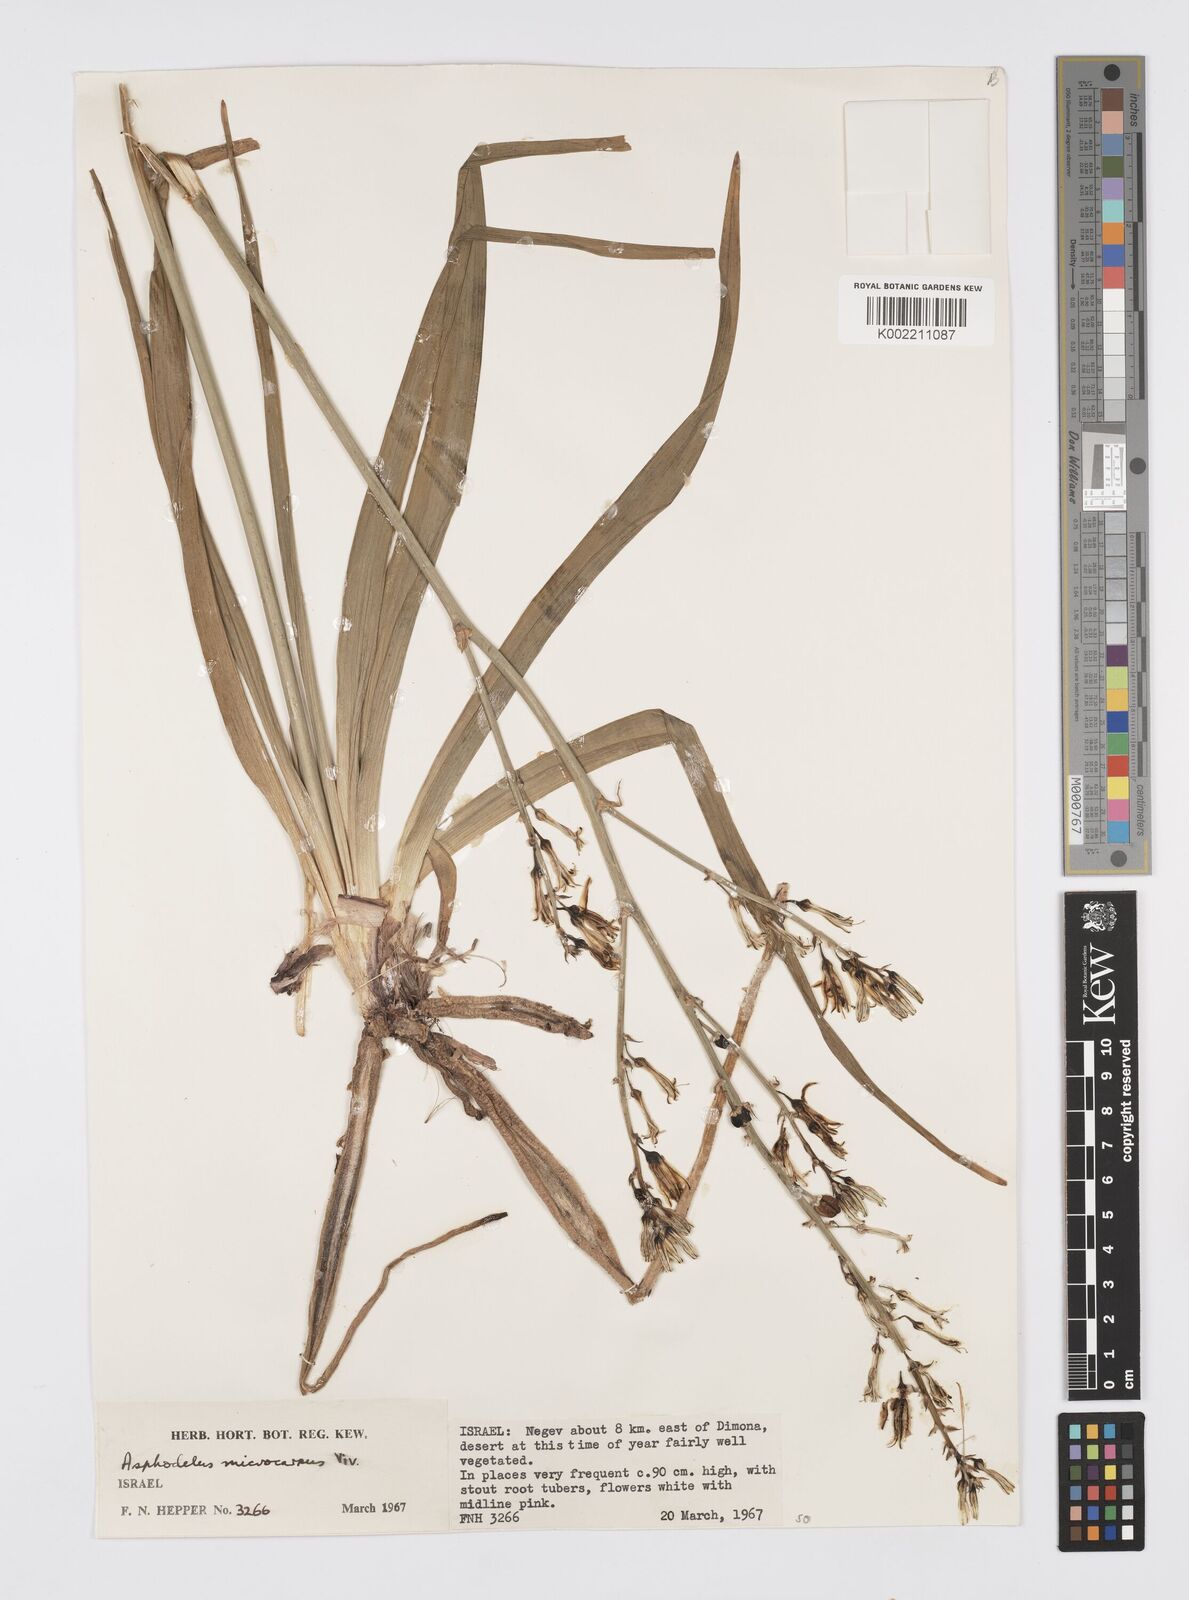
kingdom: Plantae
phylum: Tracheophyta
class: Liliopsida
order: Asparagales
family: Asphodelaceae
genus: Asphodelus
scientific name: Asphodelus ramosus
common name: Silverrod
